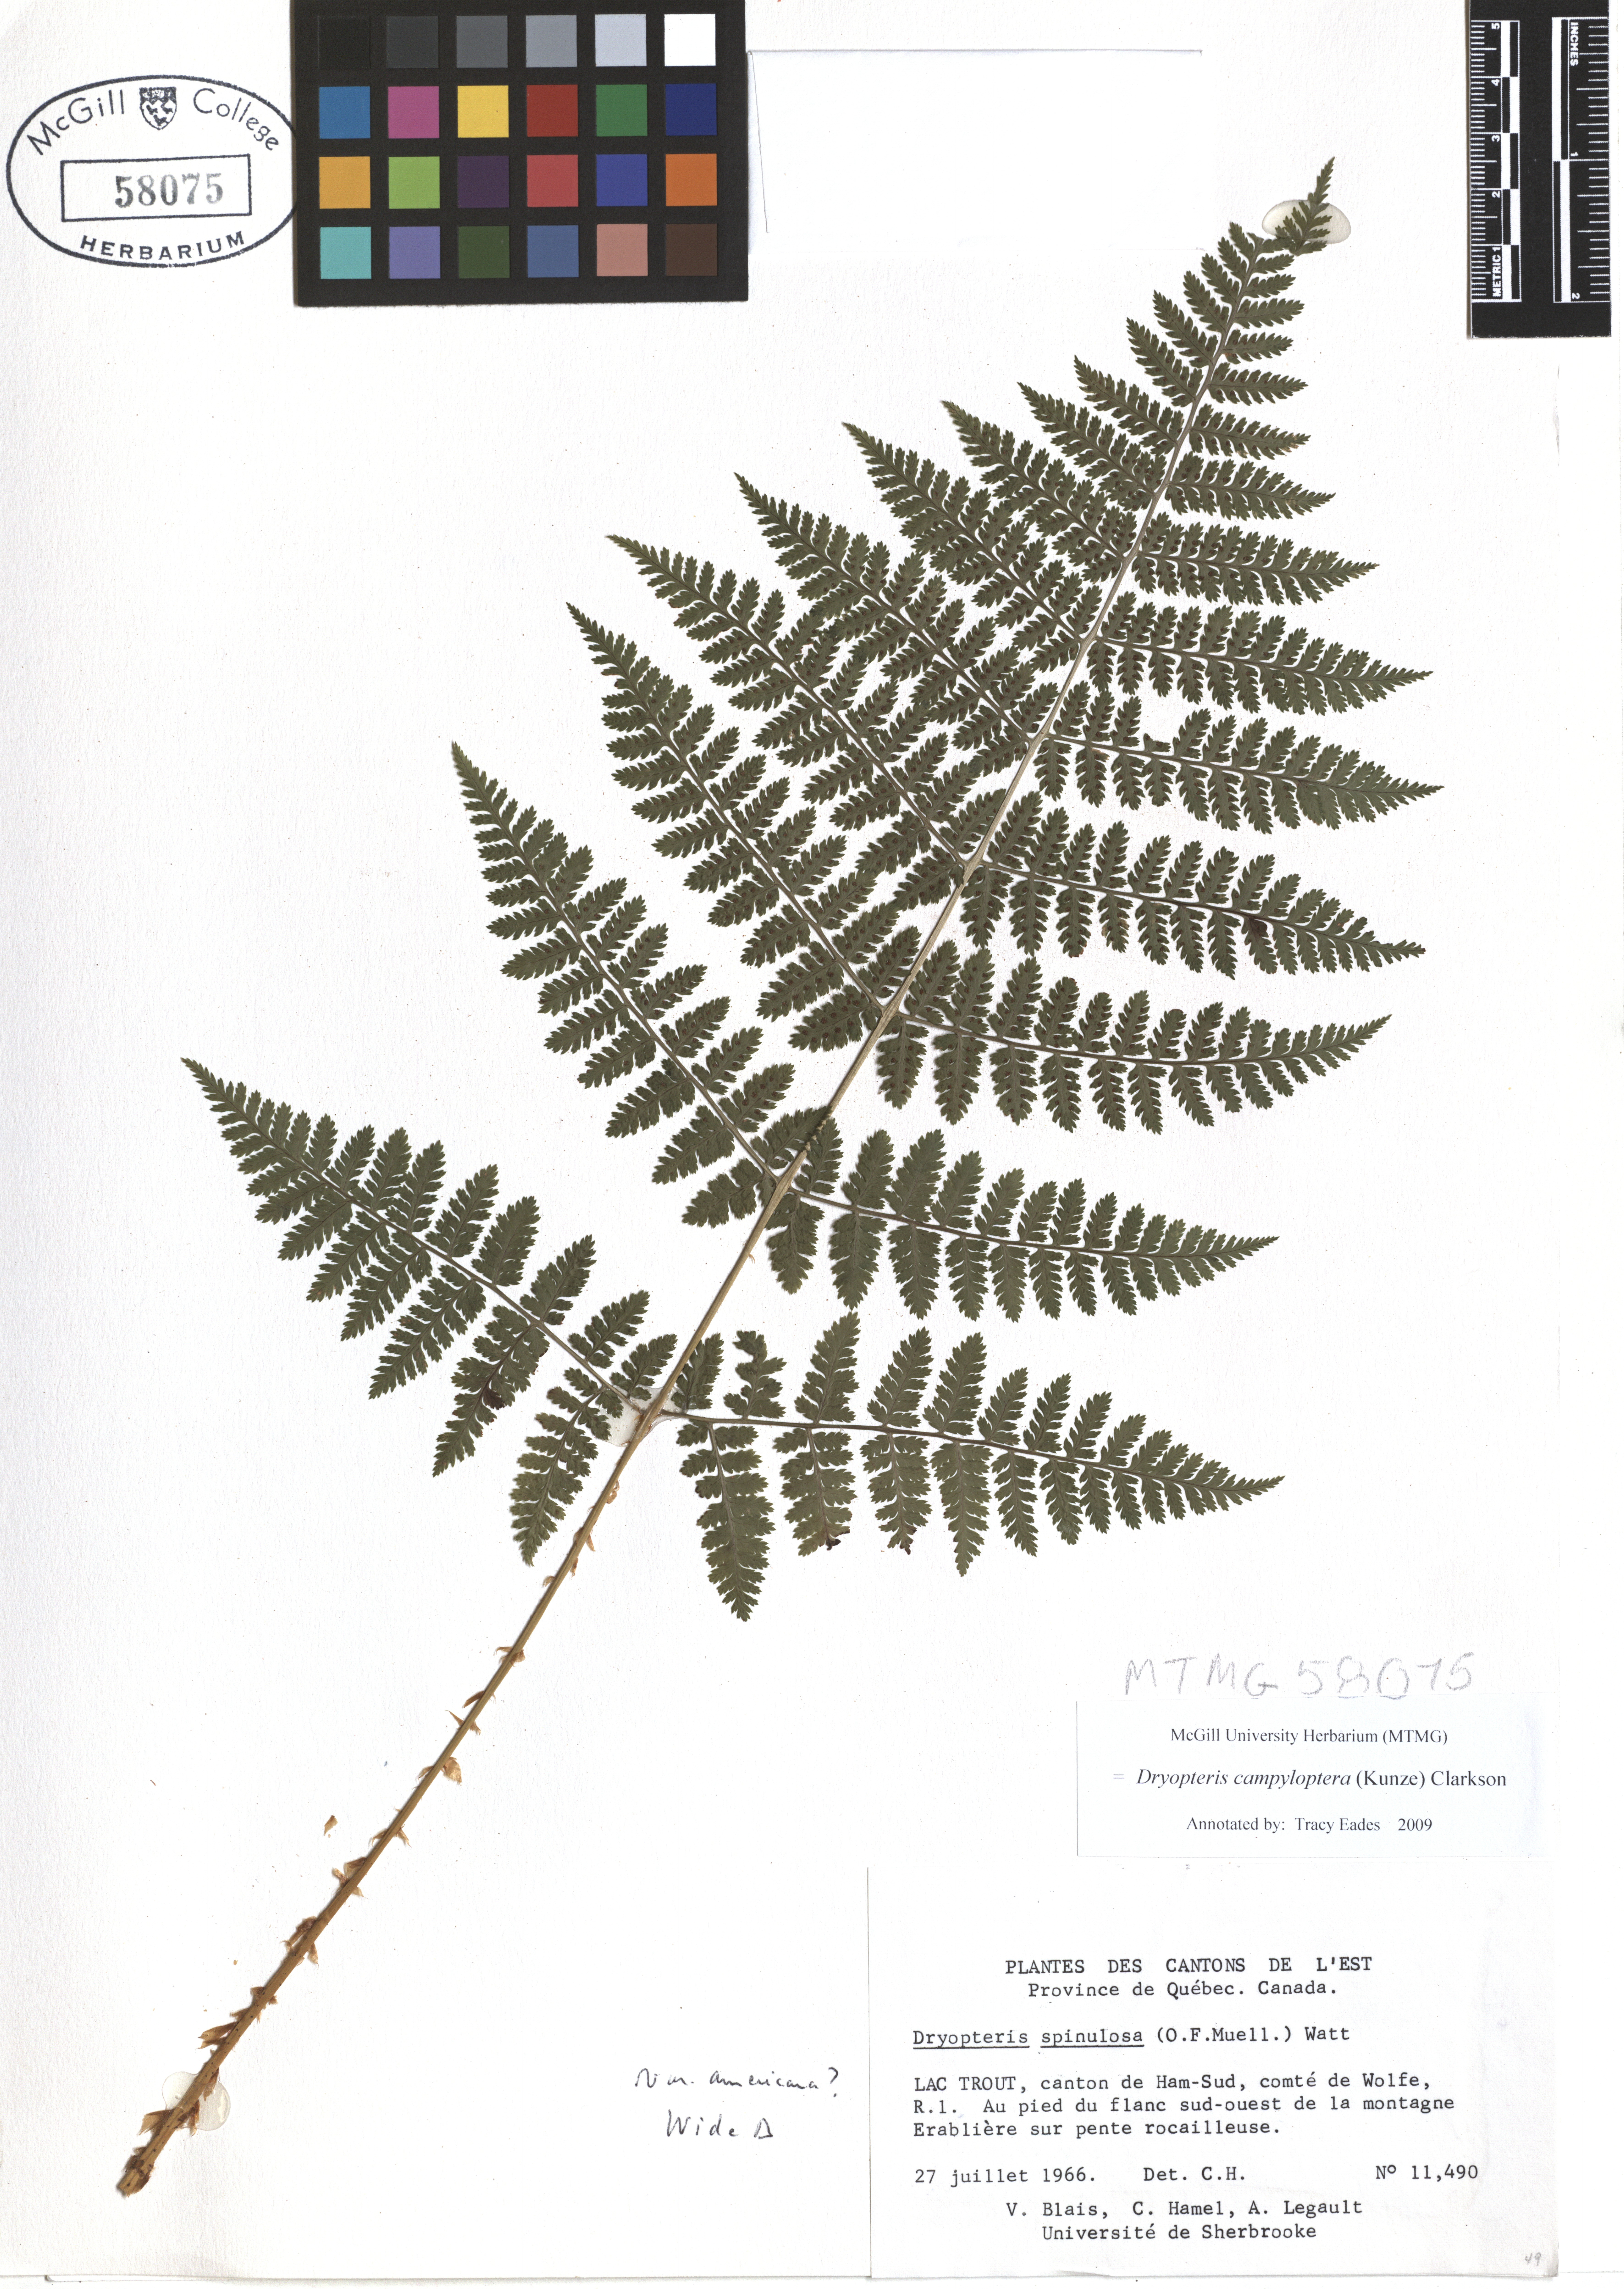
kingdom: Plantae
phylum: Tracheophyta
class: Polypodiopsida
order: Polypodiales
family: Dryopteridaceae
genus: Dryopteris
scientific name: Dryopteris campyloptera
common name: Mountain wood fern
